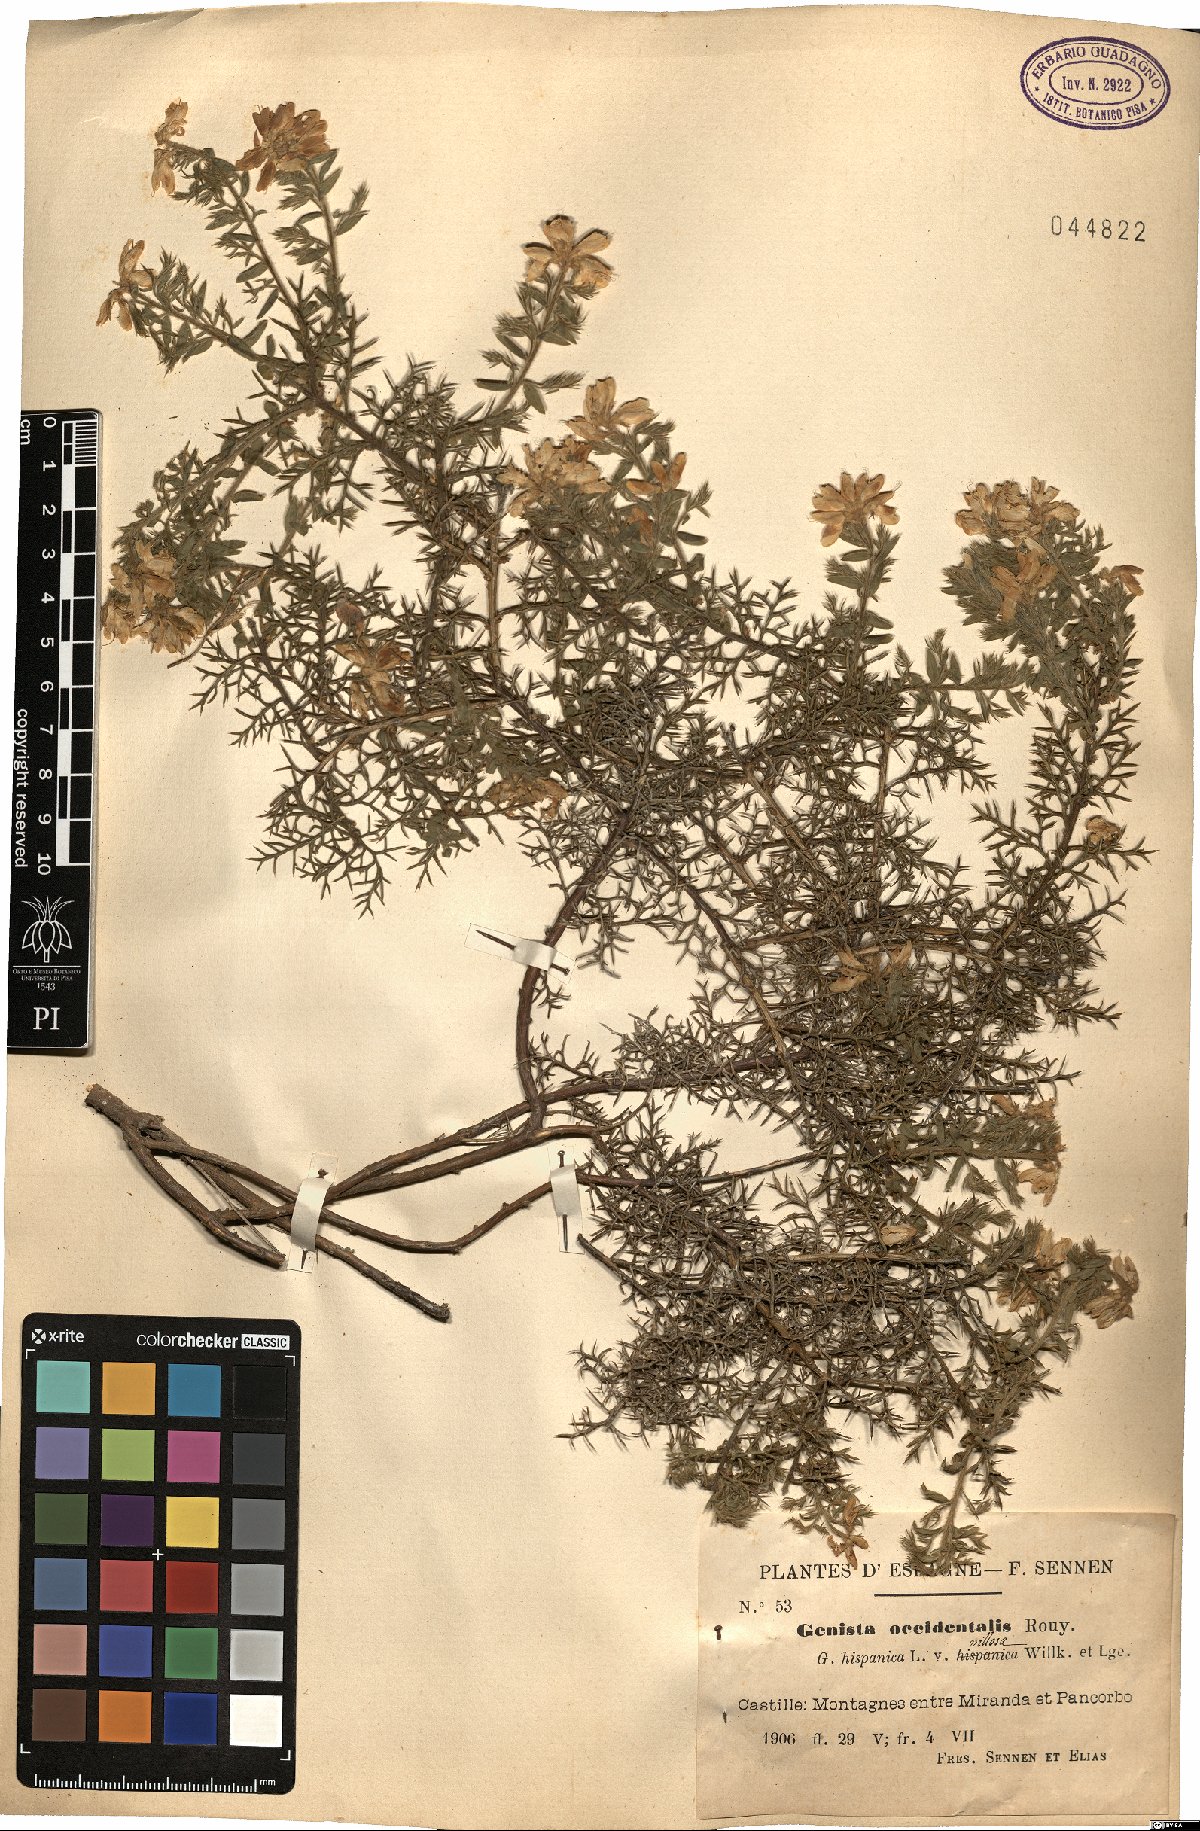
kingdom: Plantae
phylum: Tracheophyta
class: Magnoliopsida
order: Fabales
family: Fabaceae
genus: Genista
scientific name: Genista hispanica
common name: Spanish gorse
